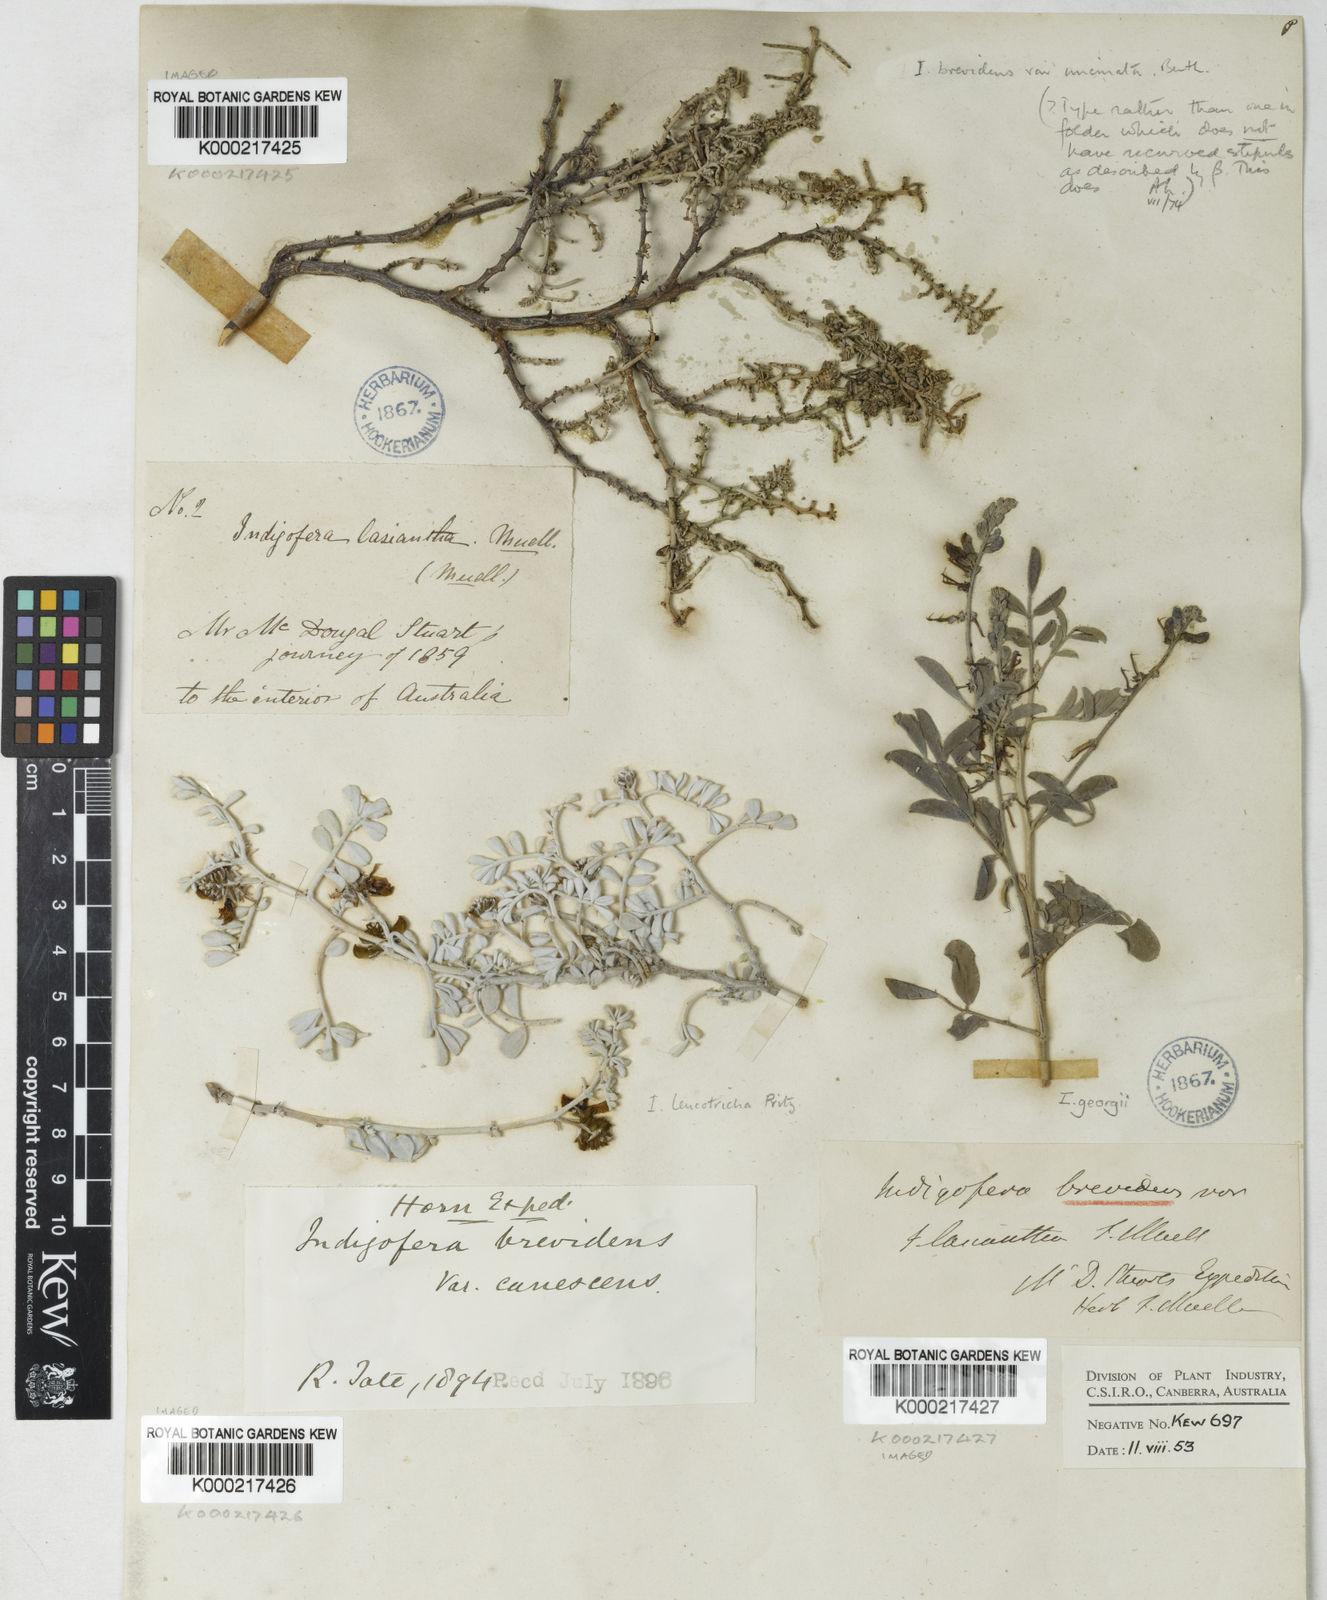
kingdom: Plantae
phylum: Tracheophyta
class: Magnoliopsida
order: Fabales
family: Fabaceae
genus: Indigofera
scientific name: Indigofera cornuligera
